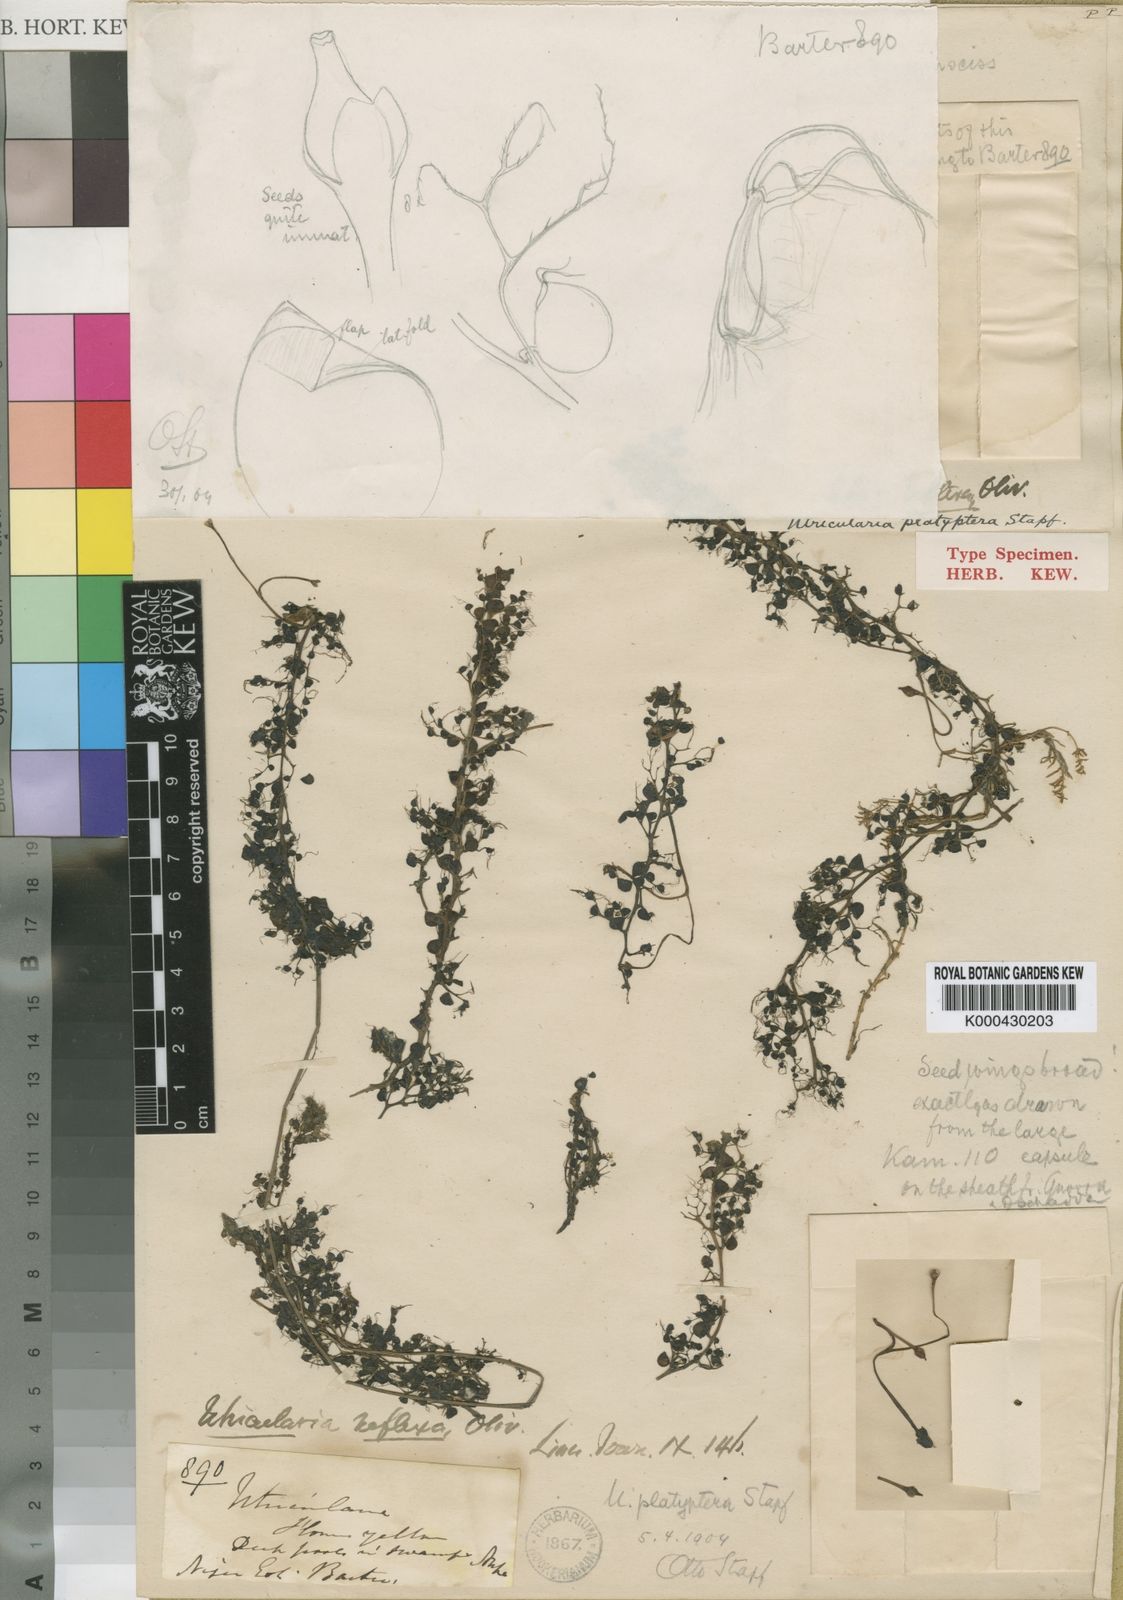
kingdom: Plantae
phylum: Tracheophyta
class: Magnoliopsida
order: Lamiales
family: Lentibulariaceae
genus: Utricularia
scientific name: Utricularia reflexa
